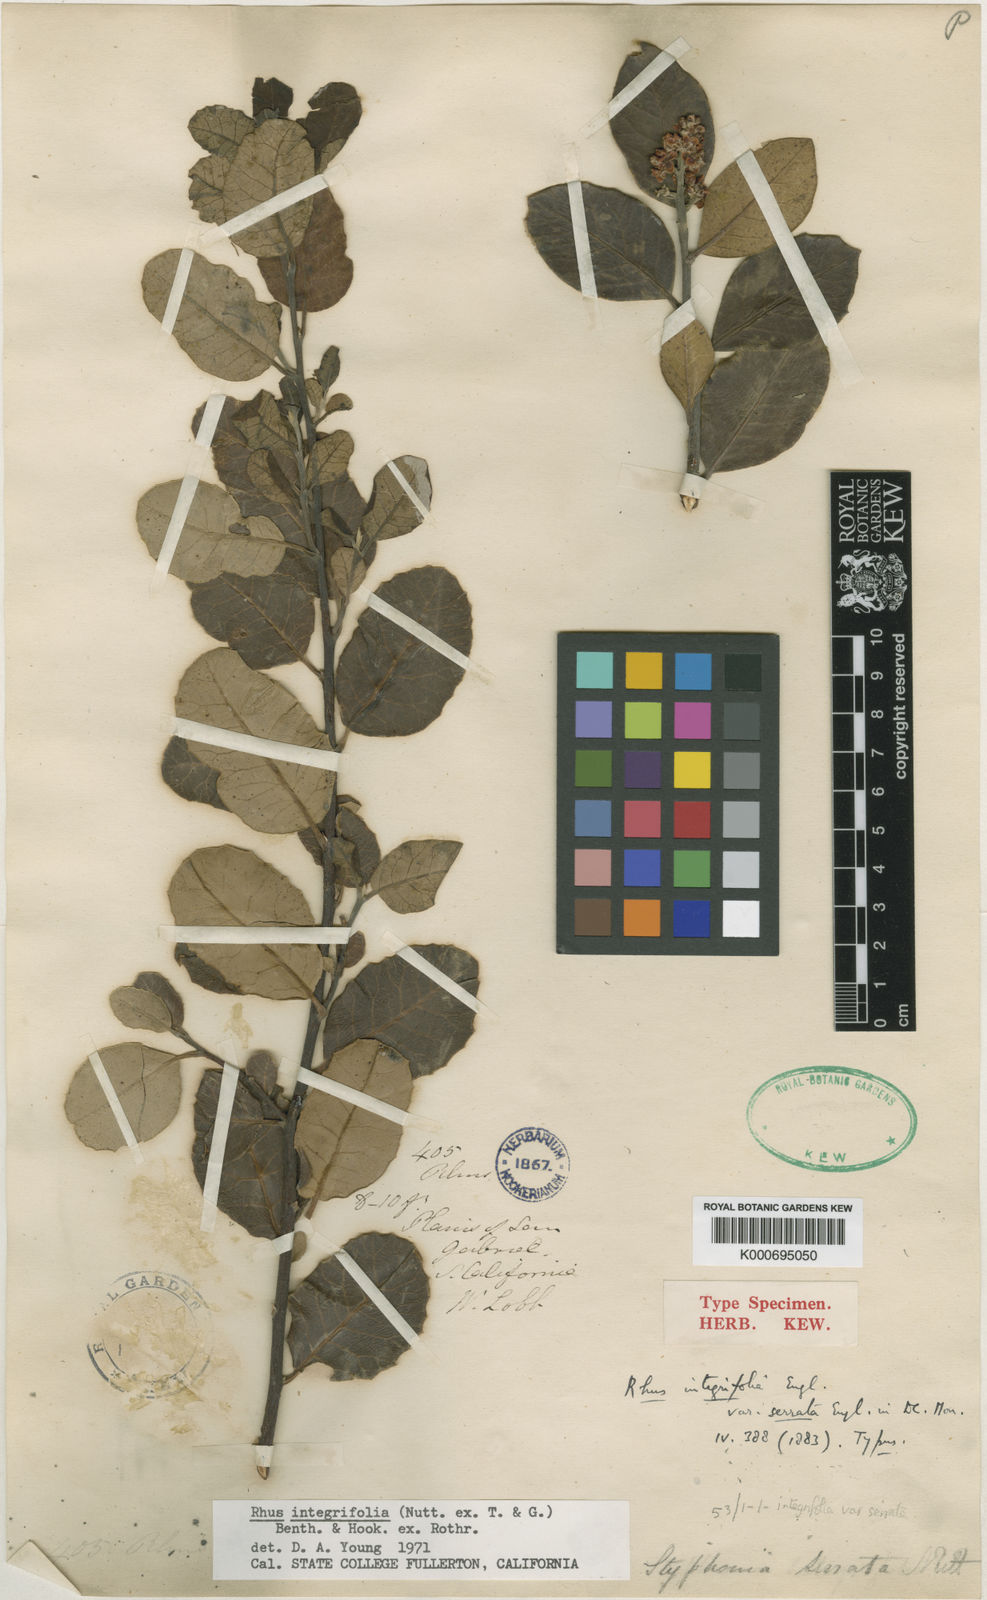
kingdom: Plantae
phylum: Tracheophyta
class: Magnoliopsida
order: Sapindales
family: Anacardiaceae
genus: Rhus
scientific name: Rhus
